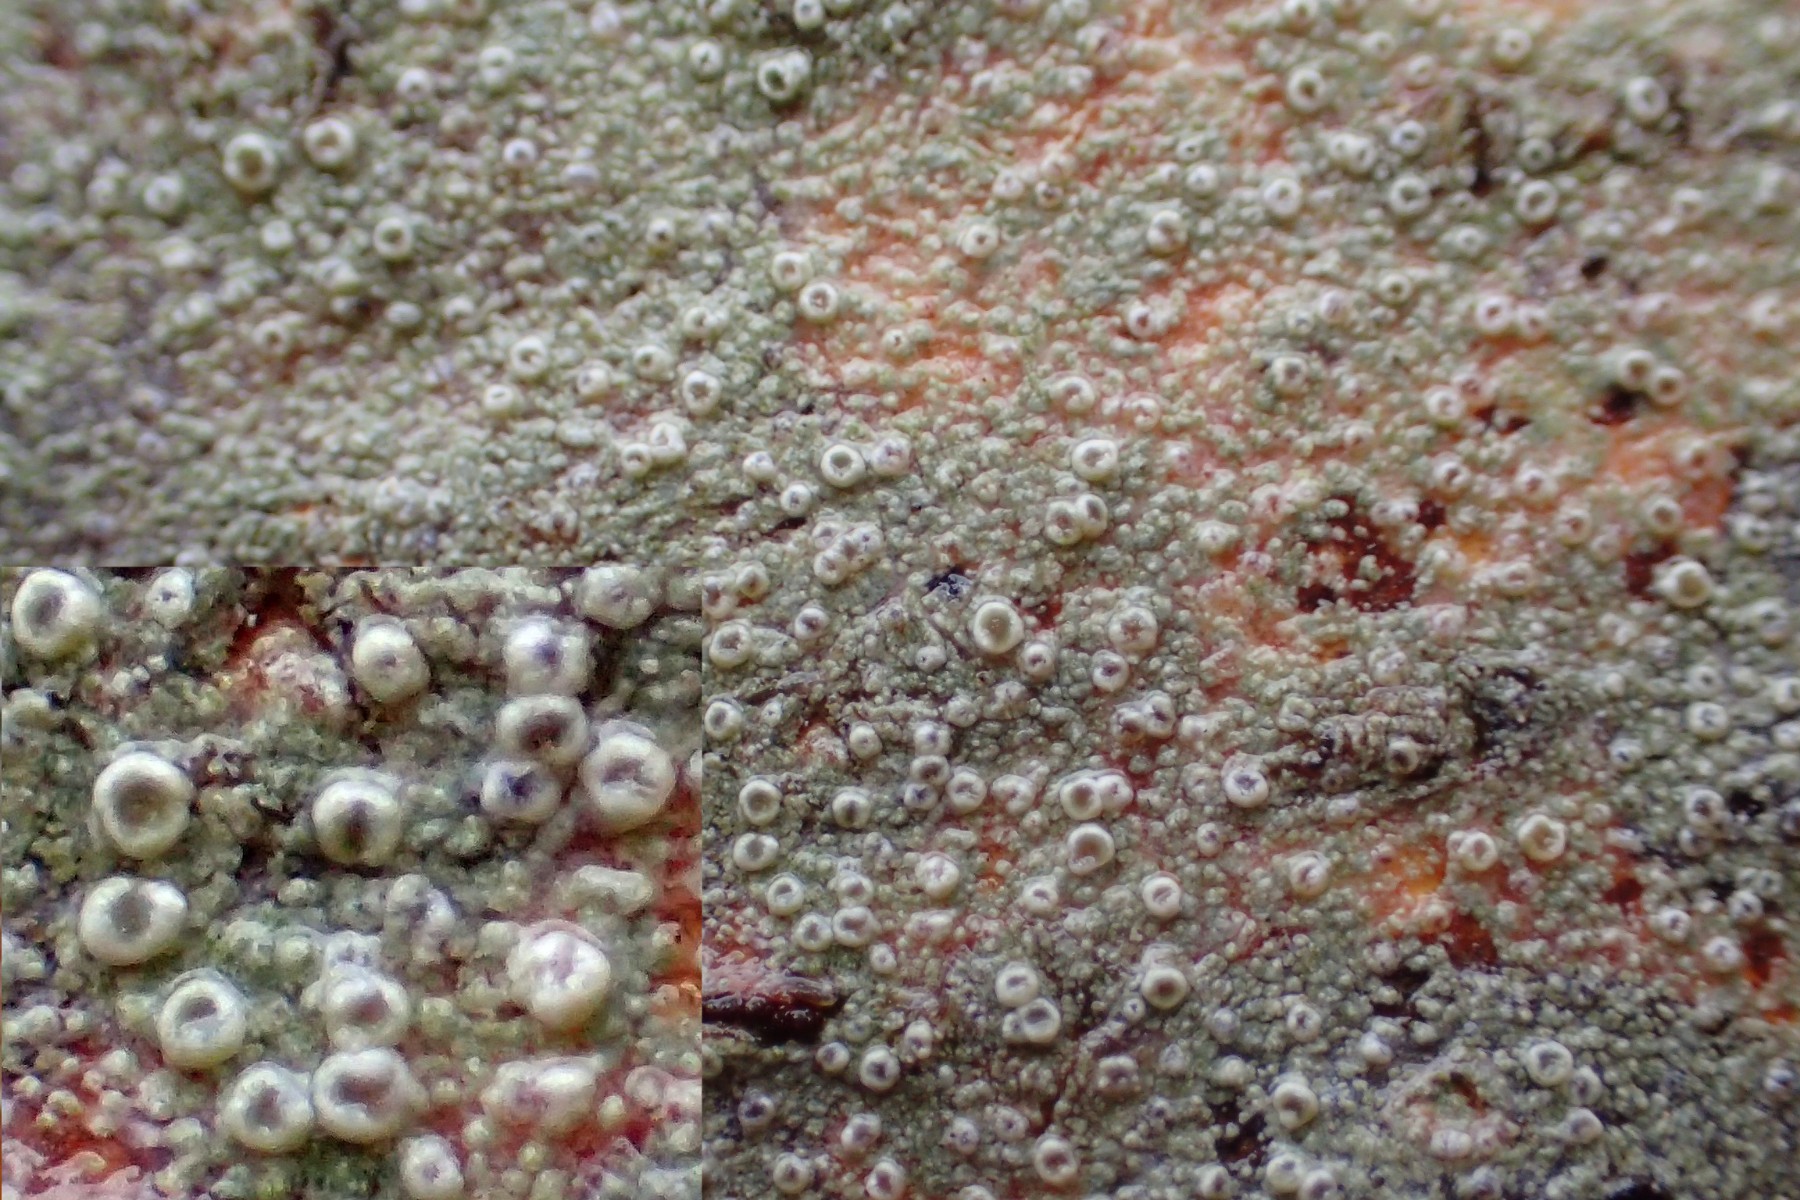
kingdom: Fungi
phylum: Ascomycota
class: Lecanoromycetes
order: Lecanorales
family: Lecanoraceae
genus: Lecanora
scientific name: Lecanora
